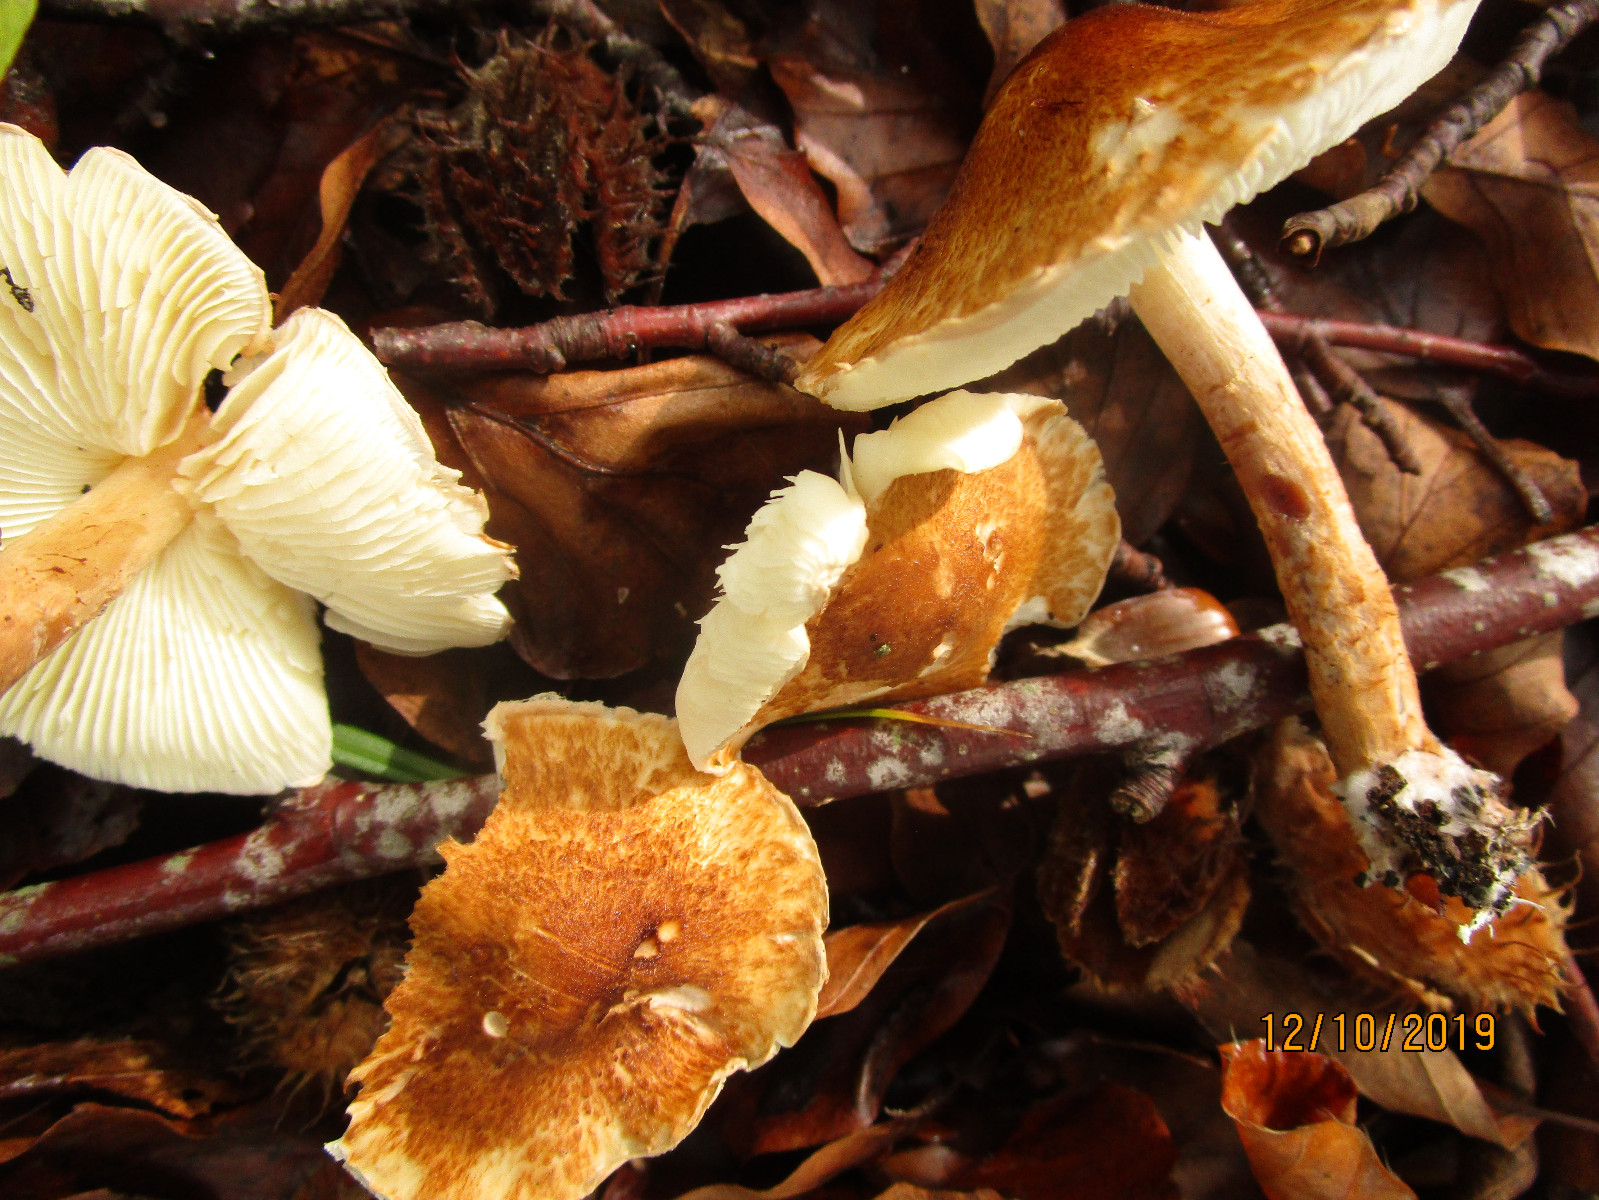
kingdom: Fungi
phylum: Basidiomycota
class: Agaricomycetes
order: Agaricales
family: Agaricaceae
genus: Leucocoprinus
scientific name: Leucocoprinus straminellus
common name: rustbrun parasolhat
